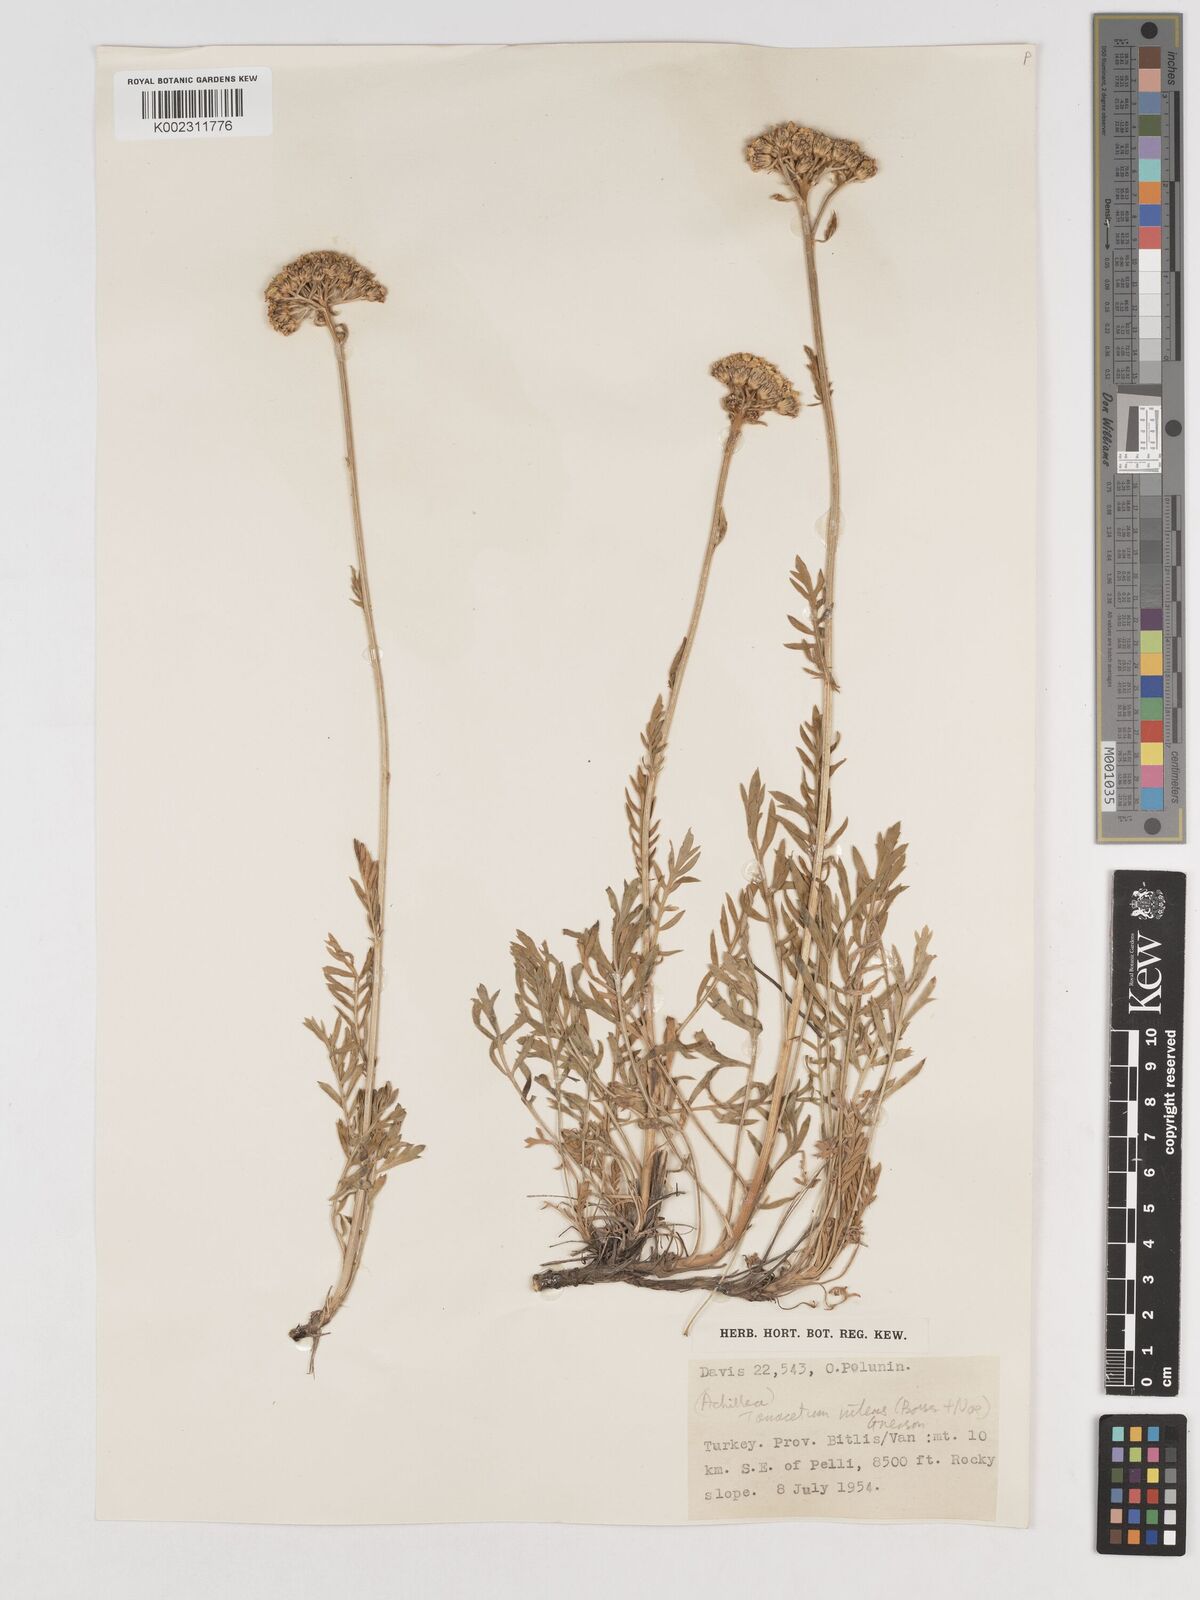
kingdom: Plantae
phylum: Tracheophyta
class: Magnoliopsida
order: Asterales
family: Asteraceae
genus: Tanacetum
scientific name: Tanacetum nitens
